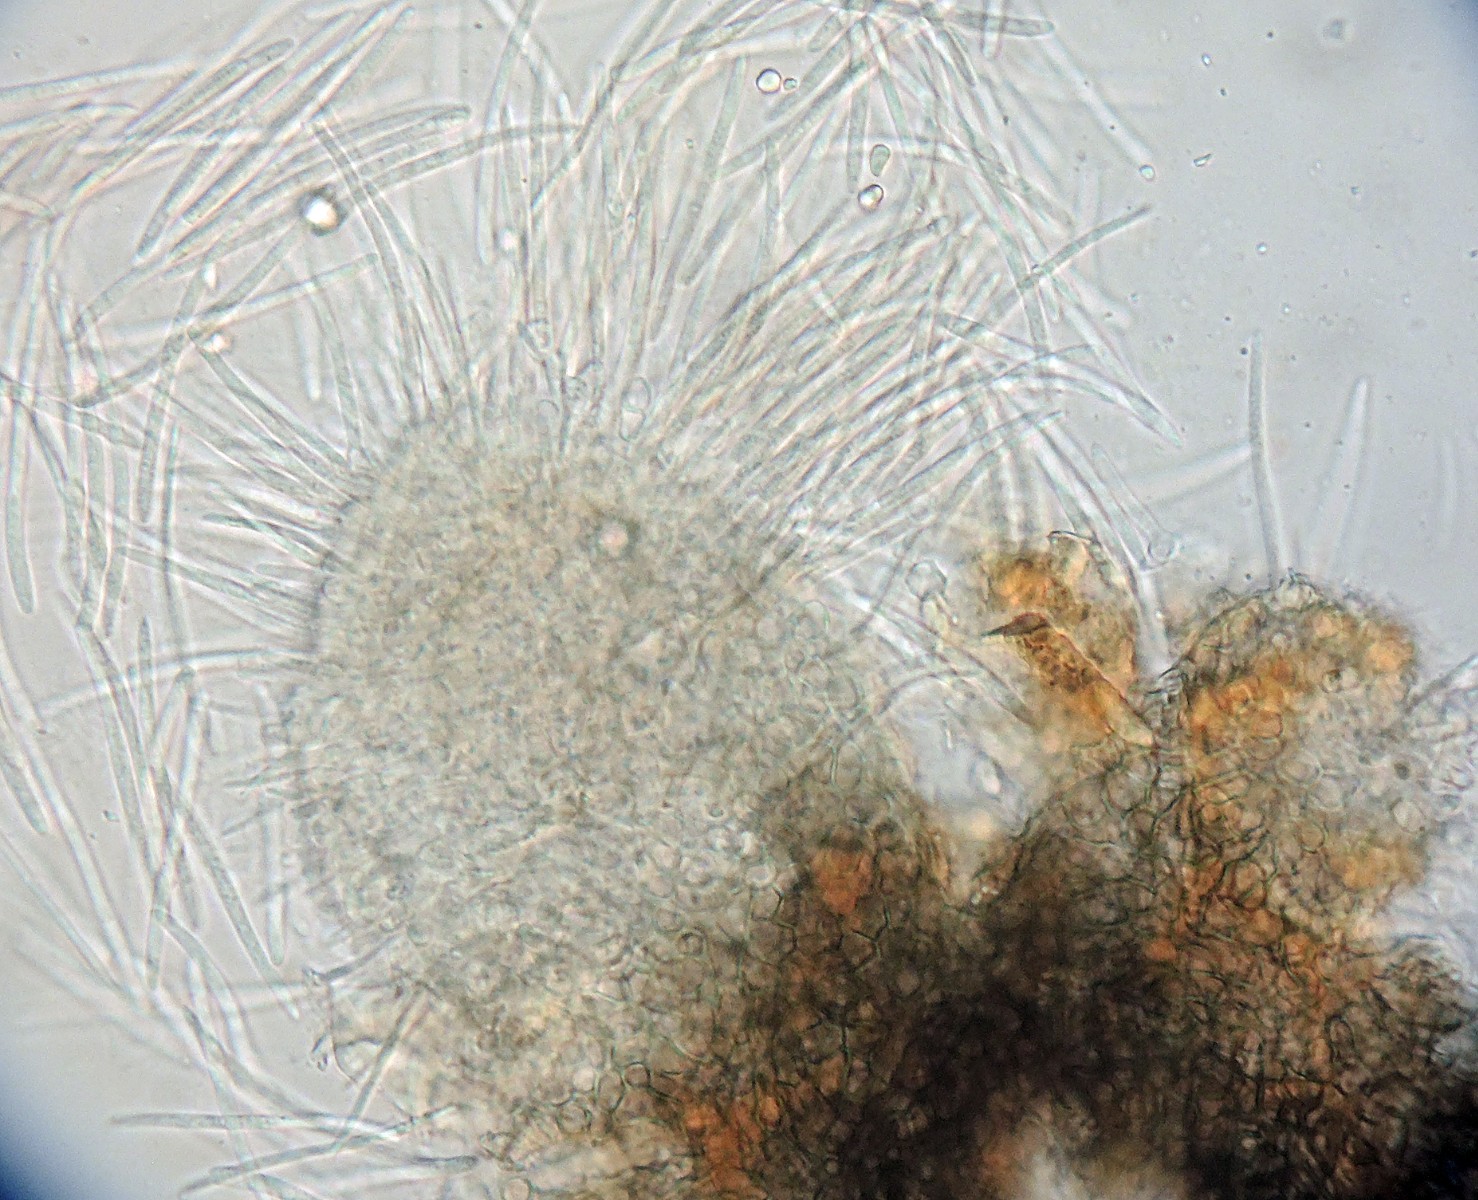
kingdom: Fungi
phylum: Ascomycota
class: Dothideomycetes
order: Mycosphaerellales
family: Mycosphaerellaceae
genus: Septoria
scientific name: Septoria bellidis
